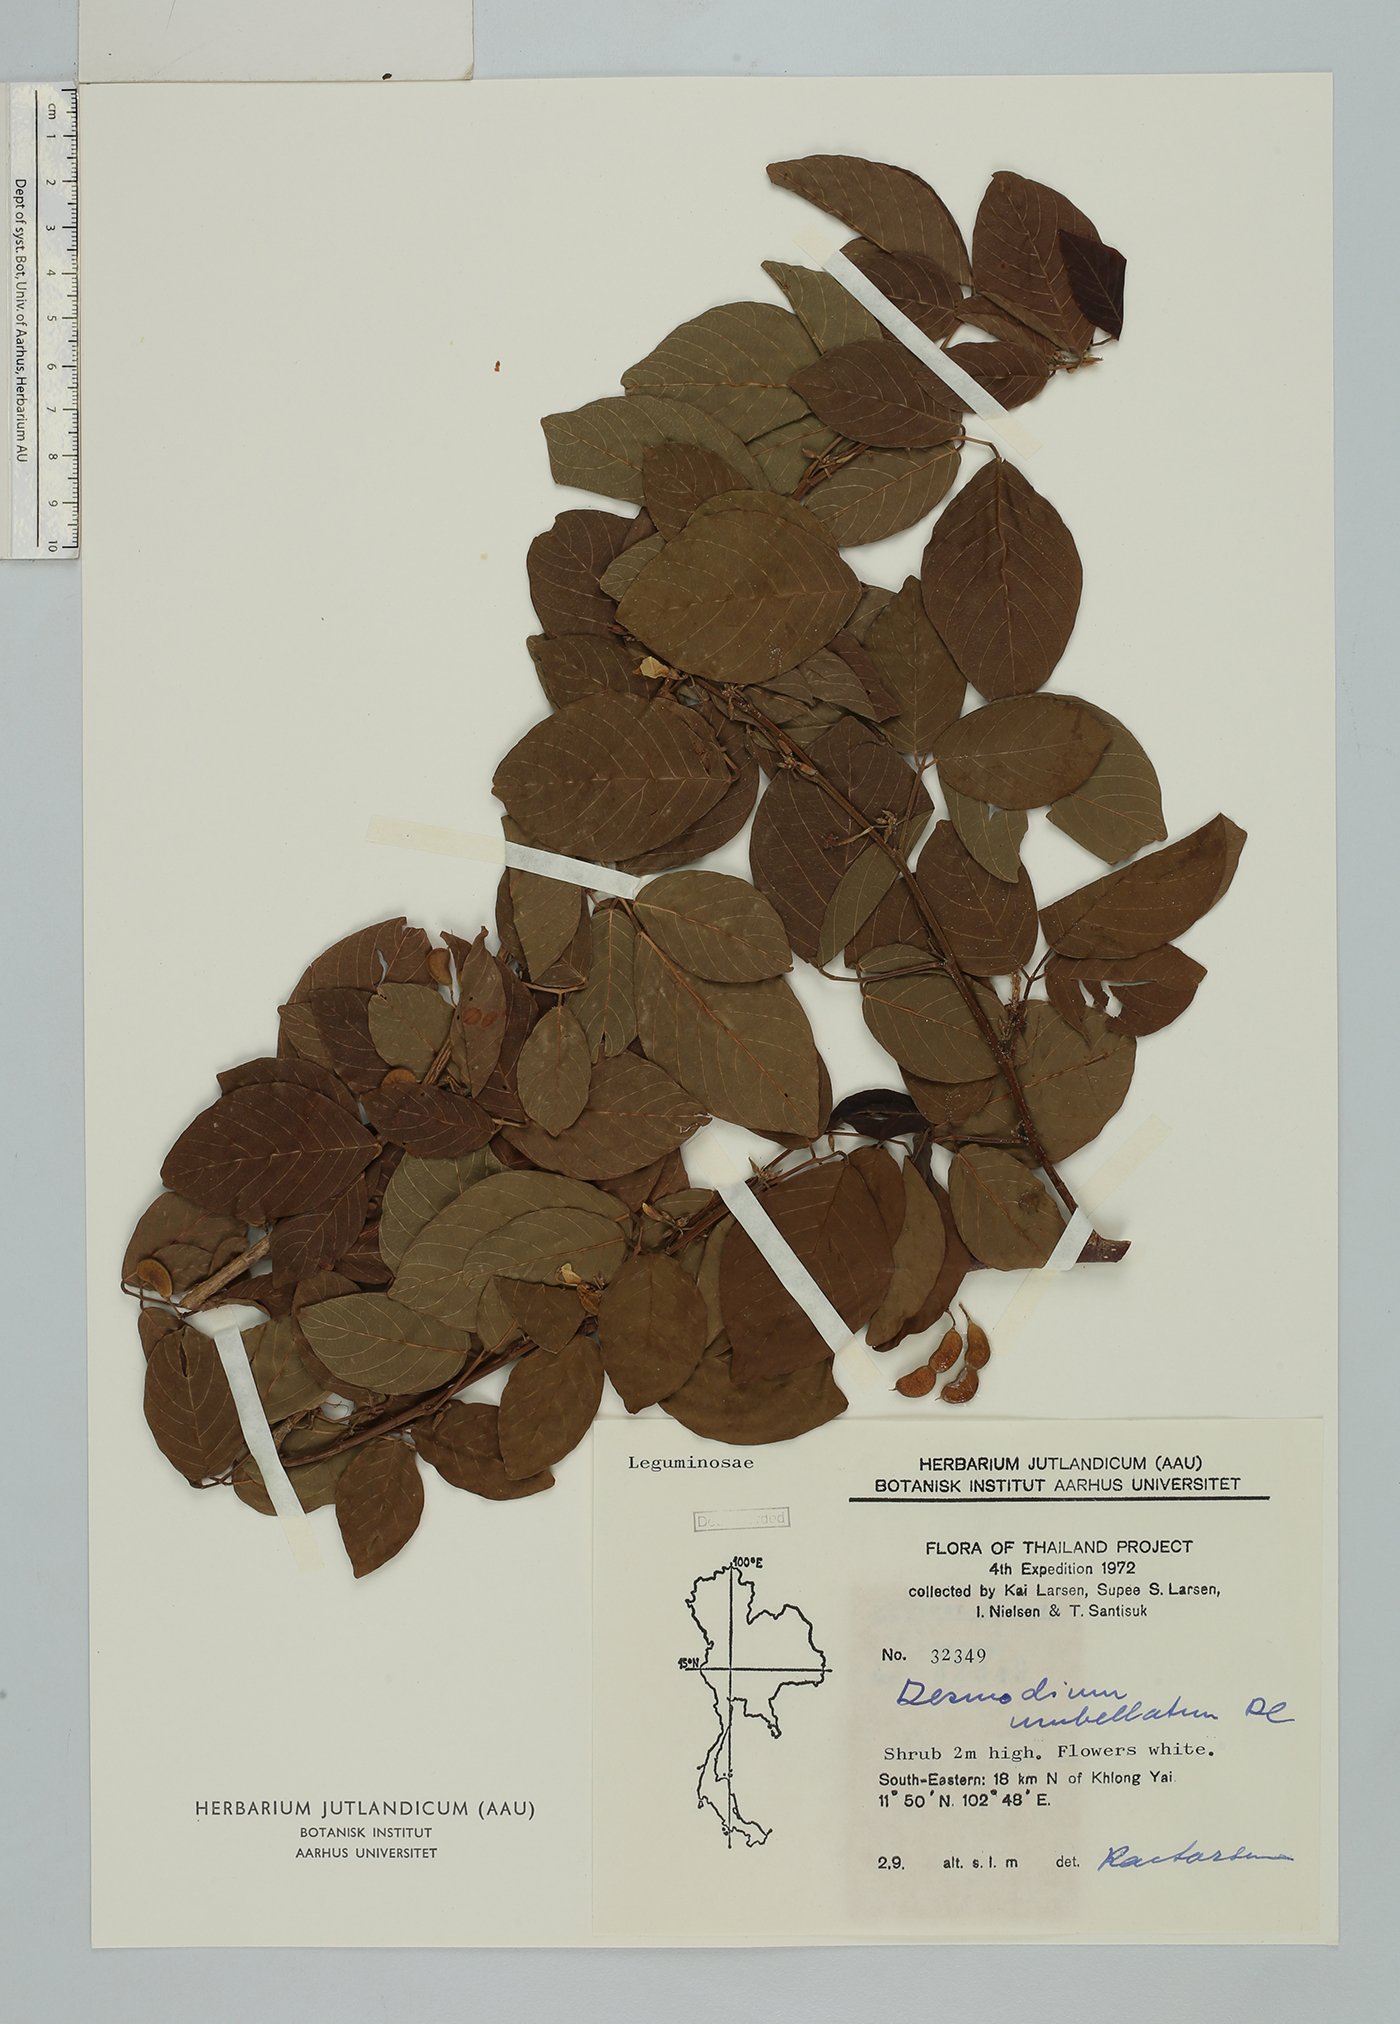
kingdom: Plantae
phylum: Tracheophyta
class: Magnoliopsida
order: Fabales
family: Fabaceae
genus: Dendrolobium
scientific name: Dendrolobium umbellatum
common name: Horsebush
